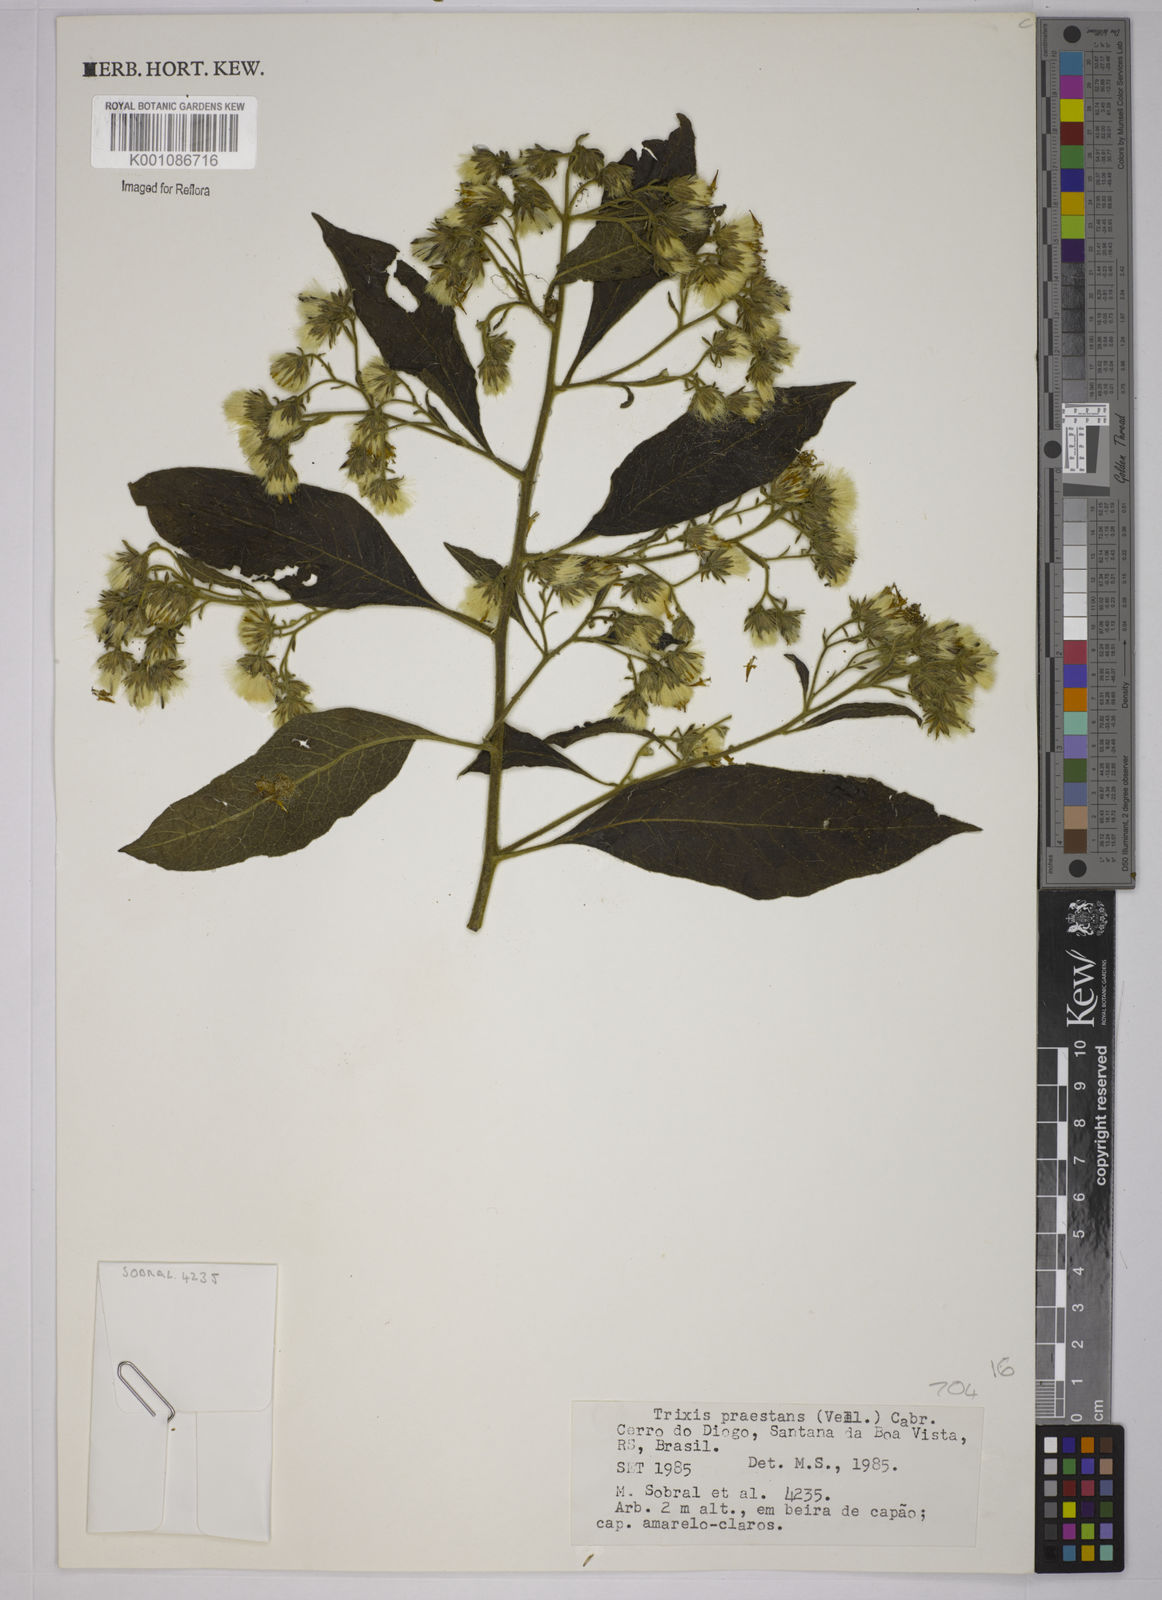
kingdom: Plantae
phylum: Tracheophyta
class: Magnoliopsida
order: Asterales
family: Asteraceae
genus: Trixis
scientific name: Trixis praestans
